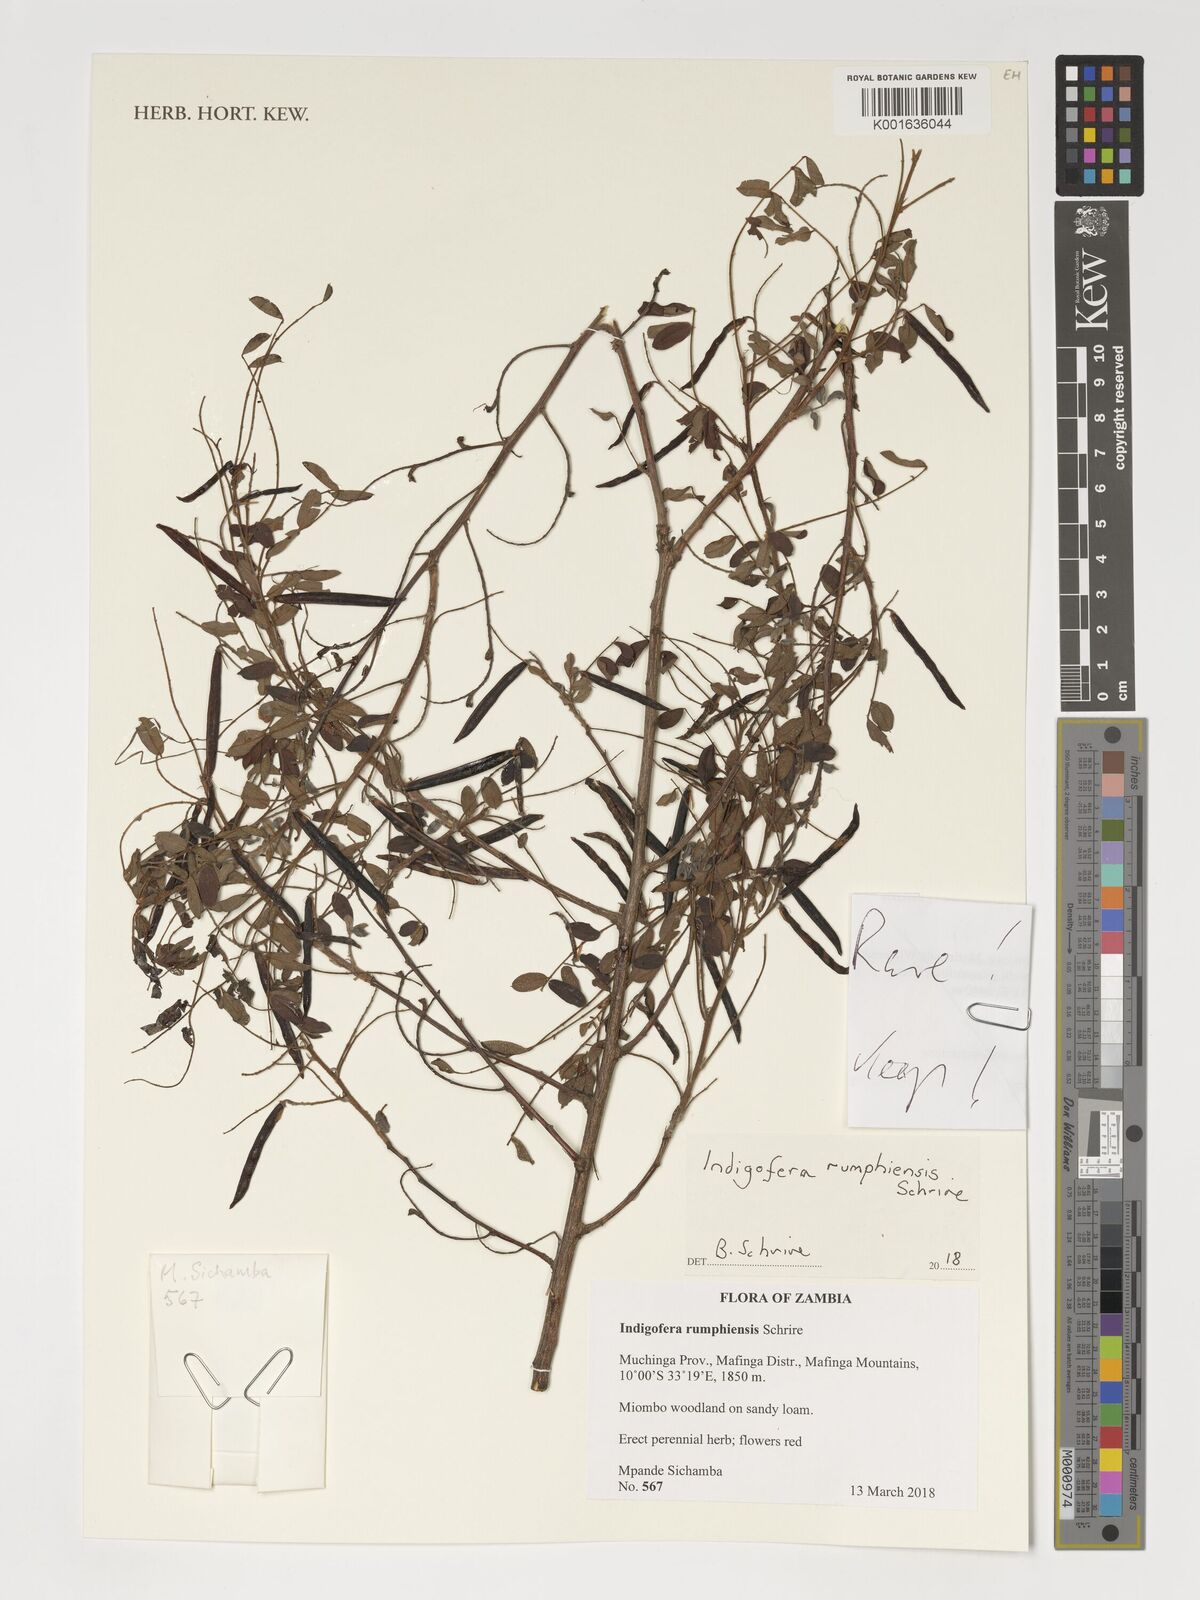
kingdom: Plantae
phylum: Tracheophyta
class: Magnoliopsida
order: Fabales
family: Fabaceae
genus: Indigofera
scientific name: Indigofera rumphiensis
